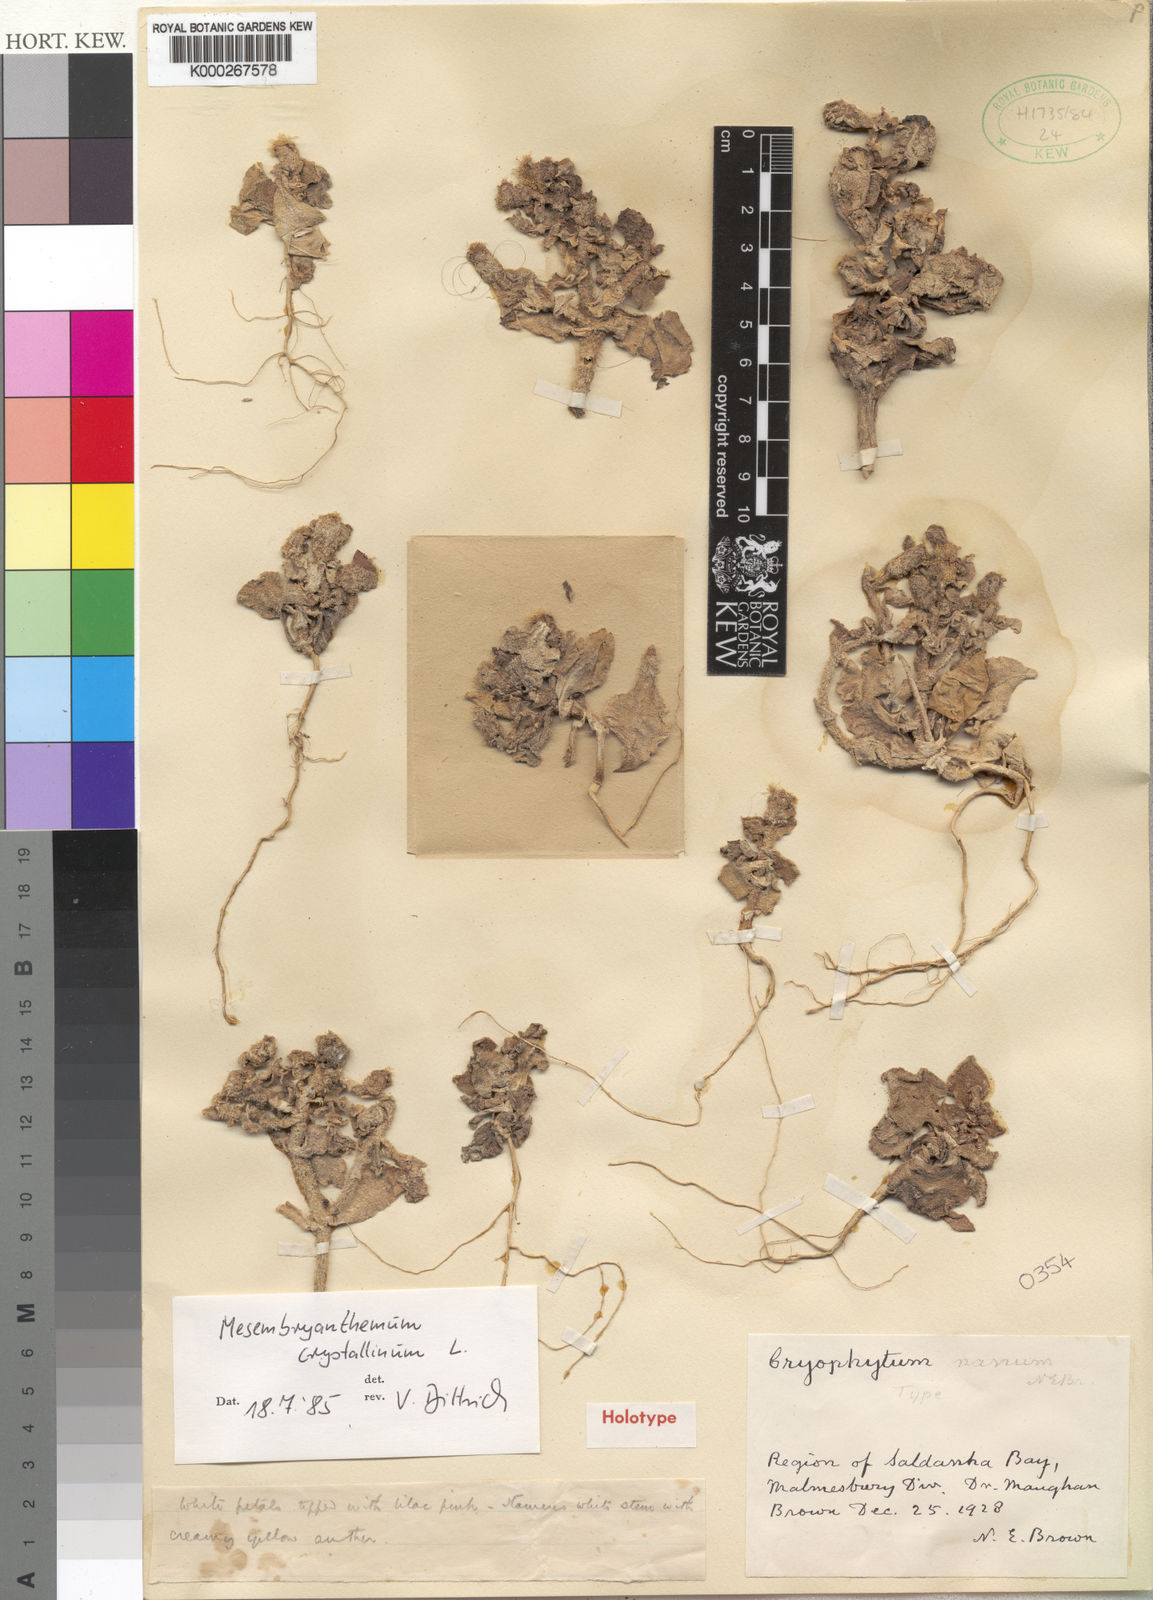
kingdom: Plantae
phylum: Tracheophyta
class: Magnoliopsida
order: Caryophyllales
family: Aizoaceae
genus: Mesembryanthemum
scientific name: Mesembryanthemum guerichianum
